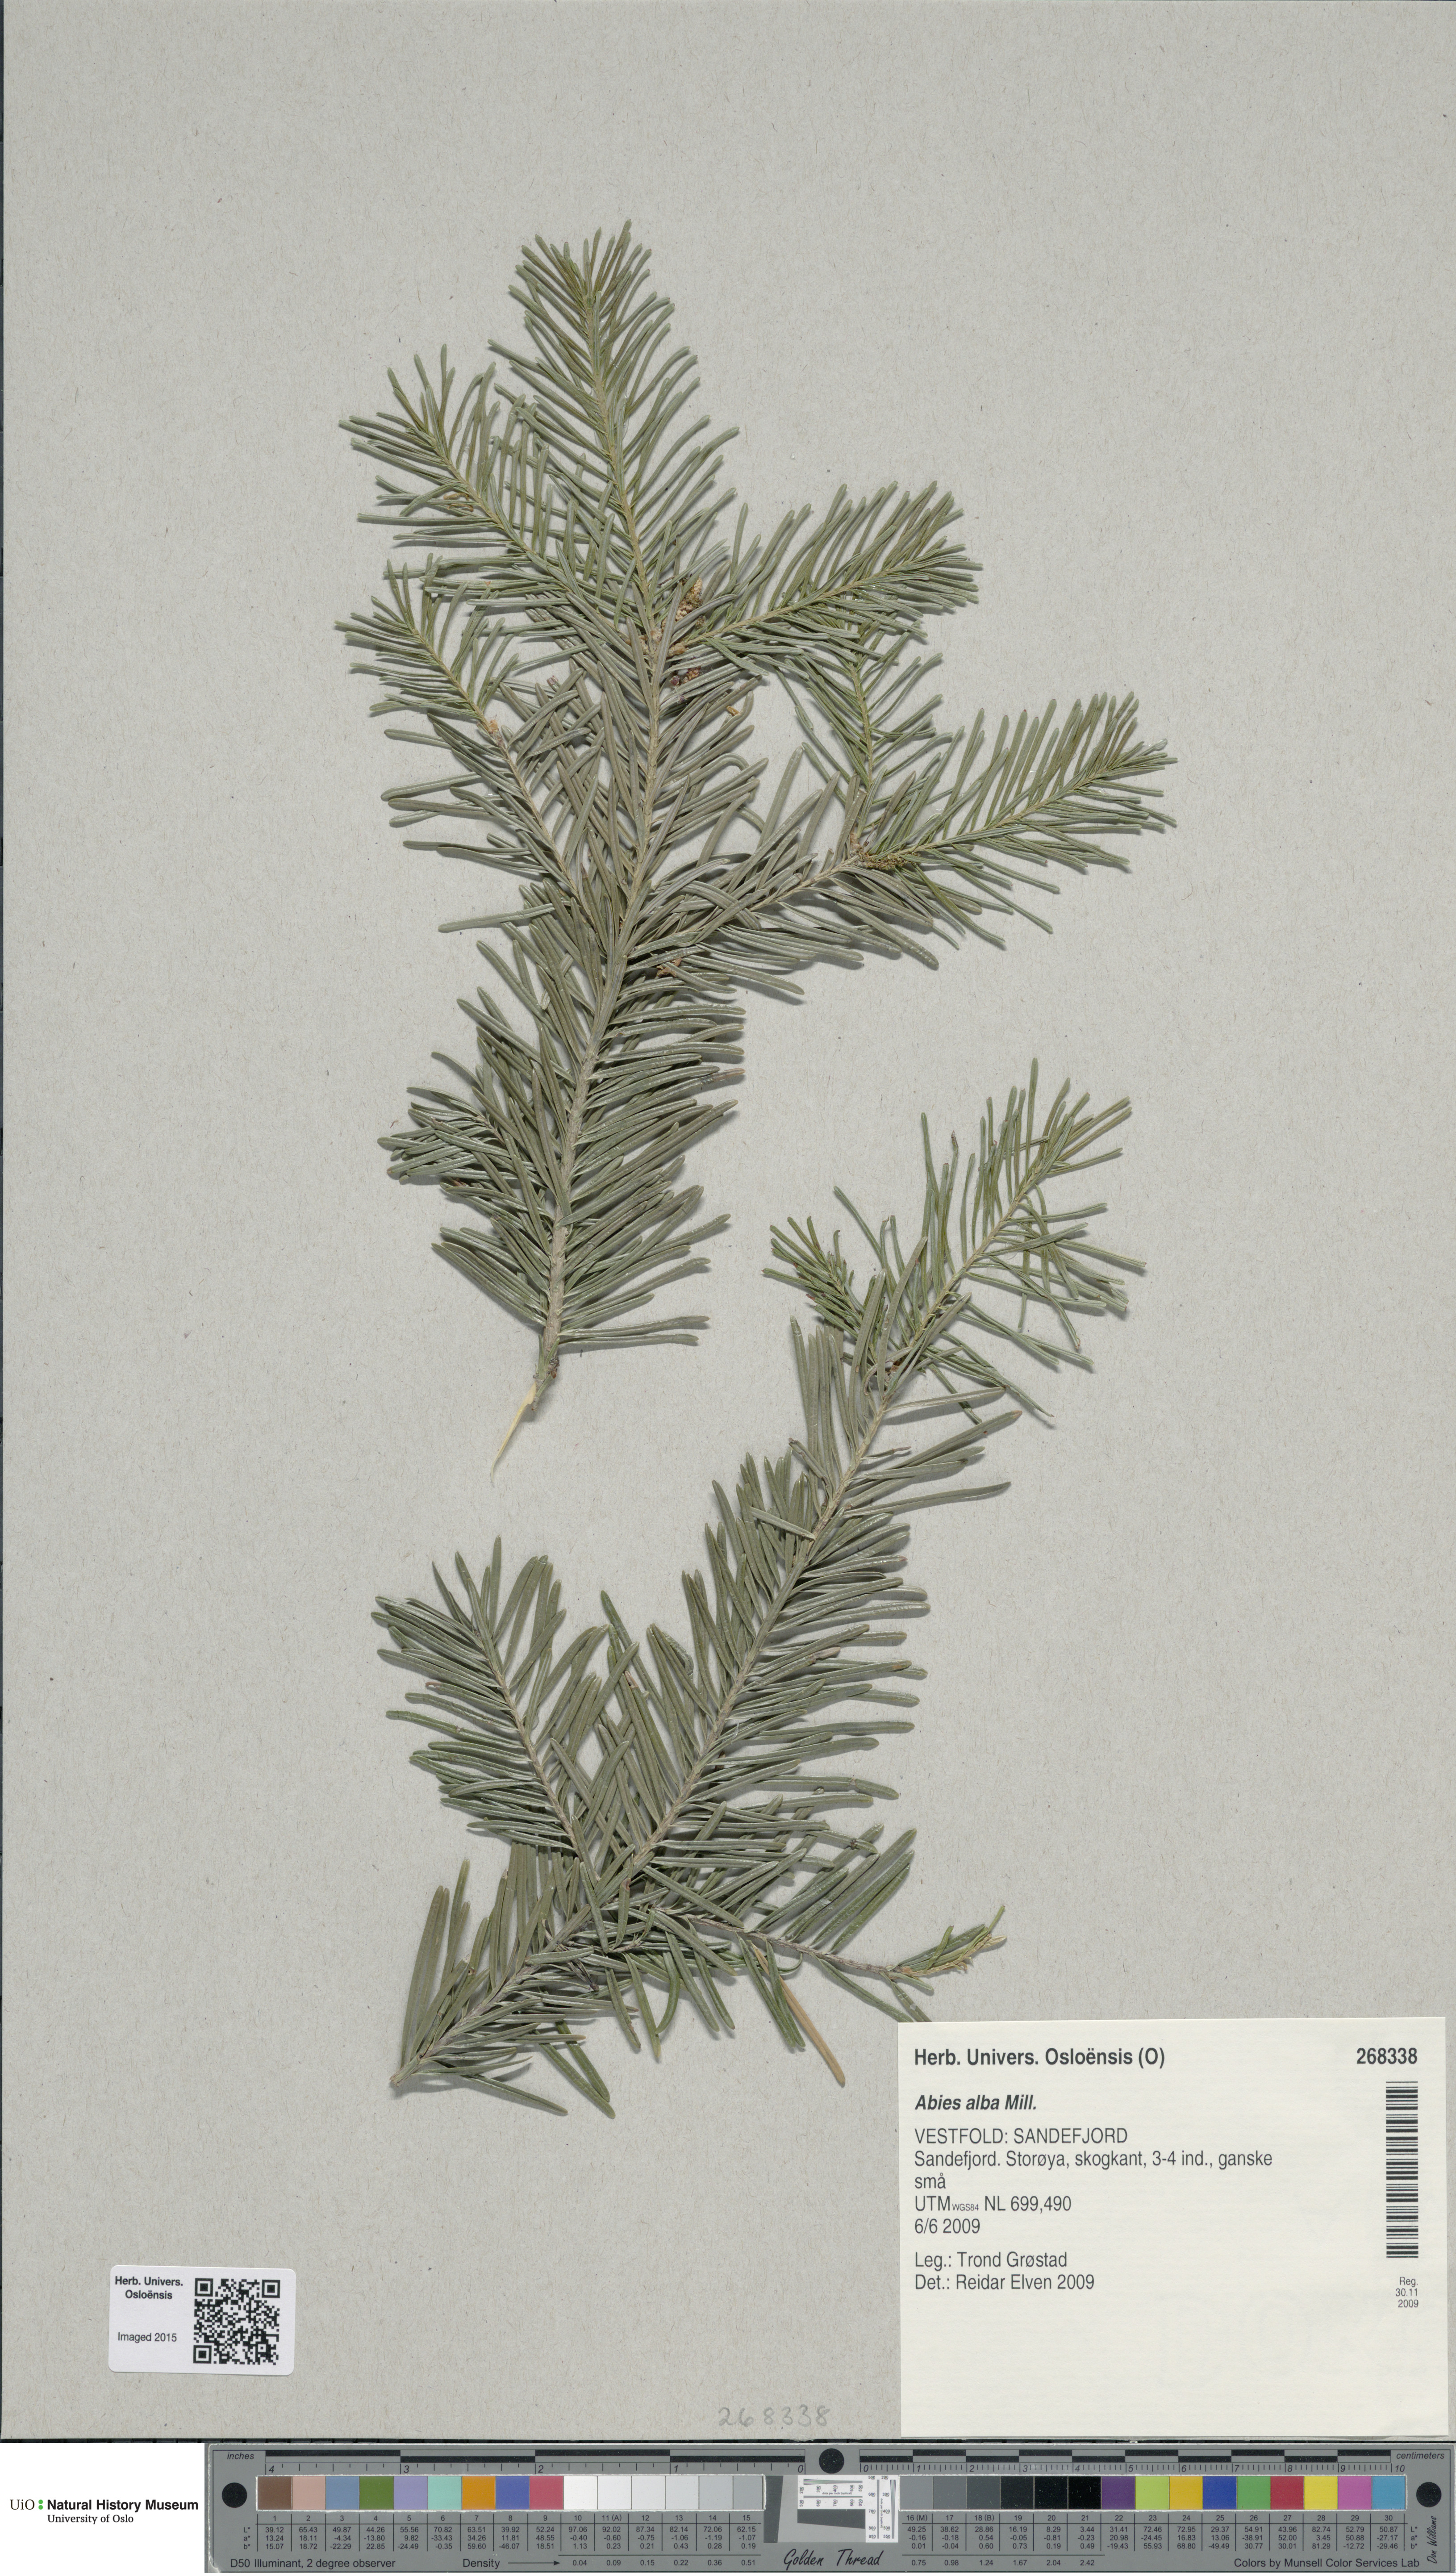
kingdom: Plantae
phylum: Tracheophyta
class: Pinopsida
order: Pinales
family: Pinaceae
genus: Abies
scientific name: Abies lasiocarpa
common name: Subalpine fir
